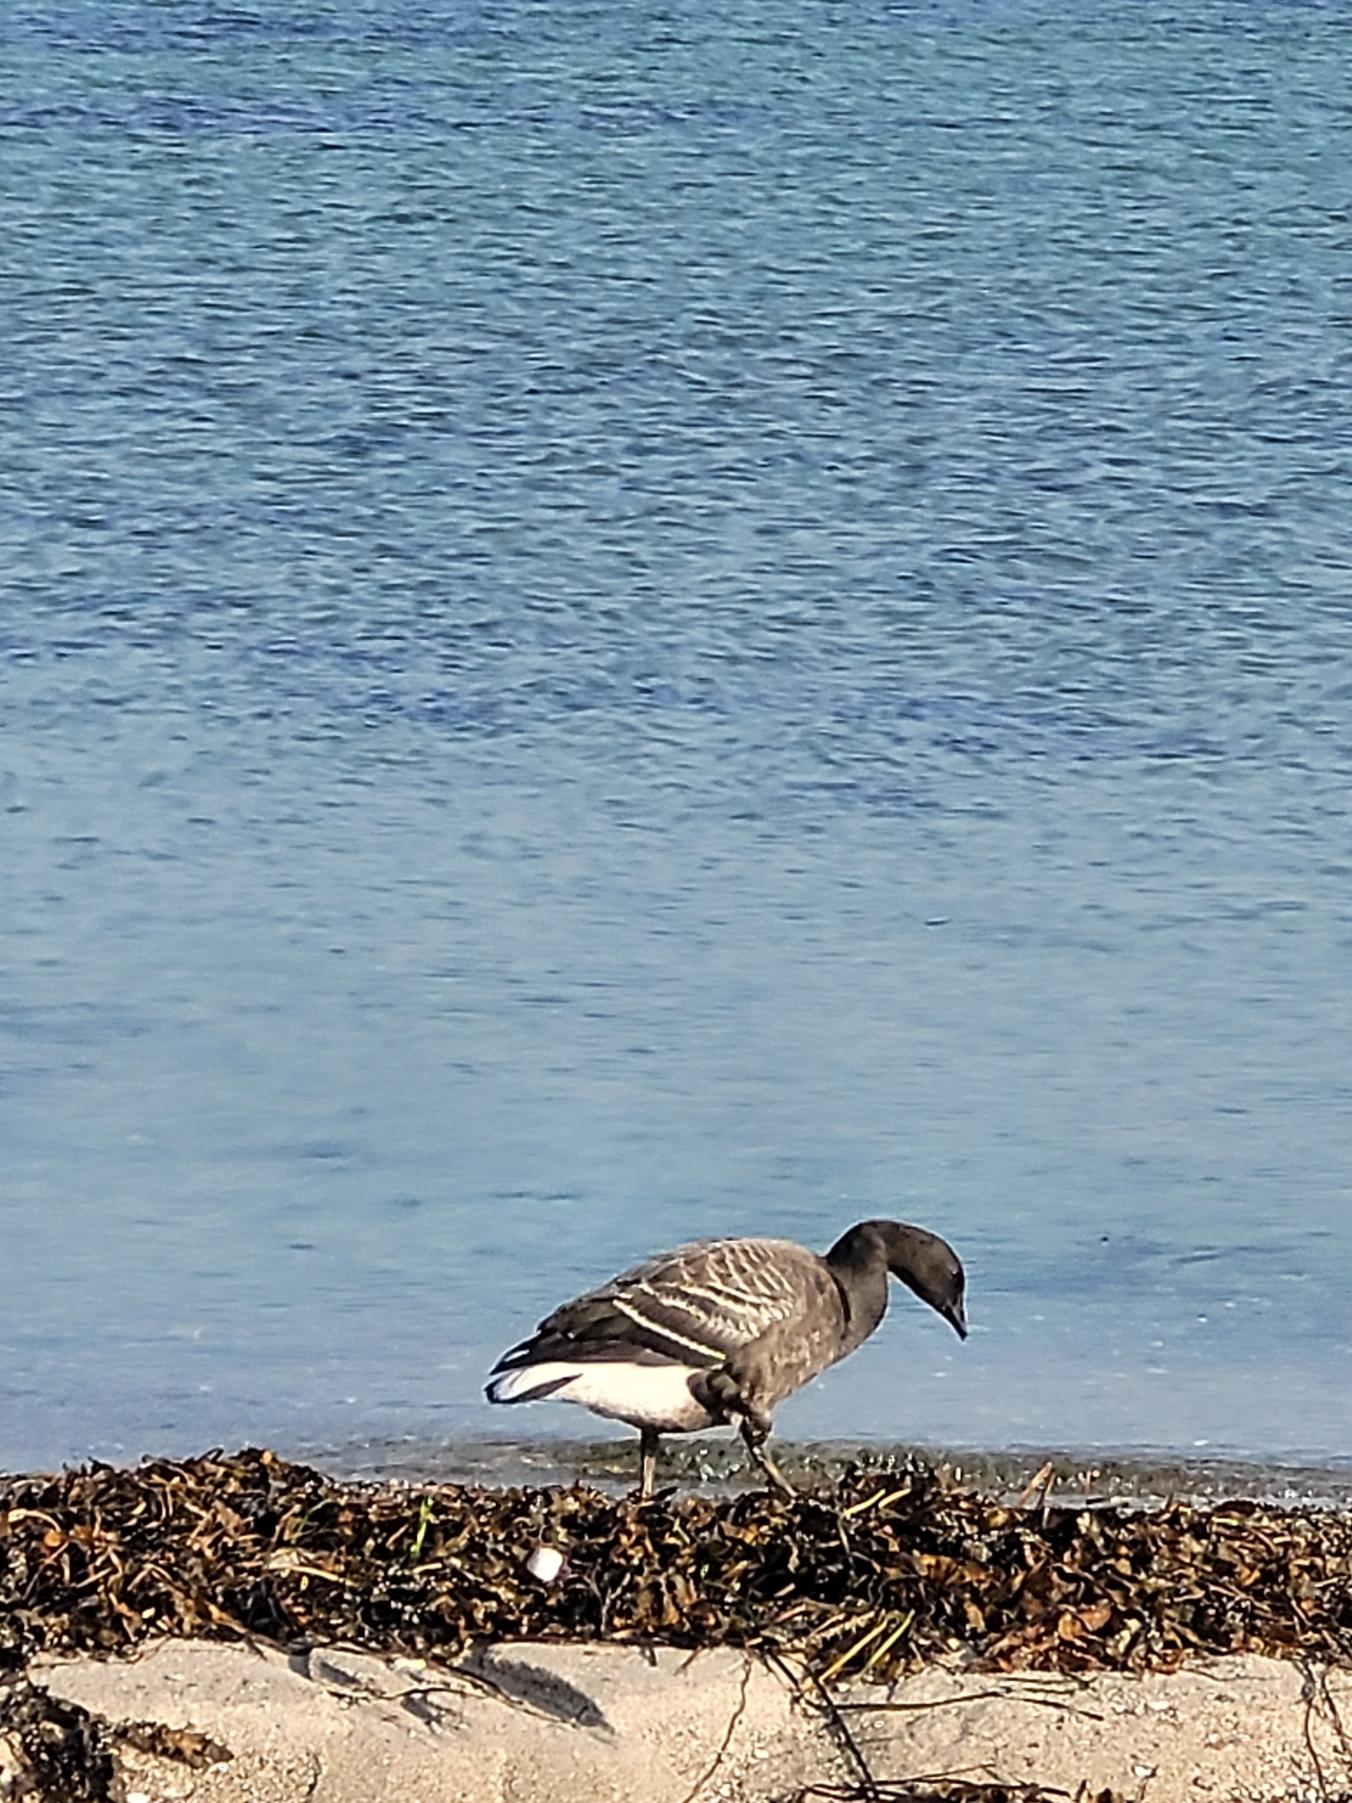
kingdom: Animalia
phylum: Chordata
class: Aves
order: Anseriformes
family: Anatidae
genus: Branta
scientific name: Branta bernicla
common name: Knortegås
